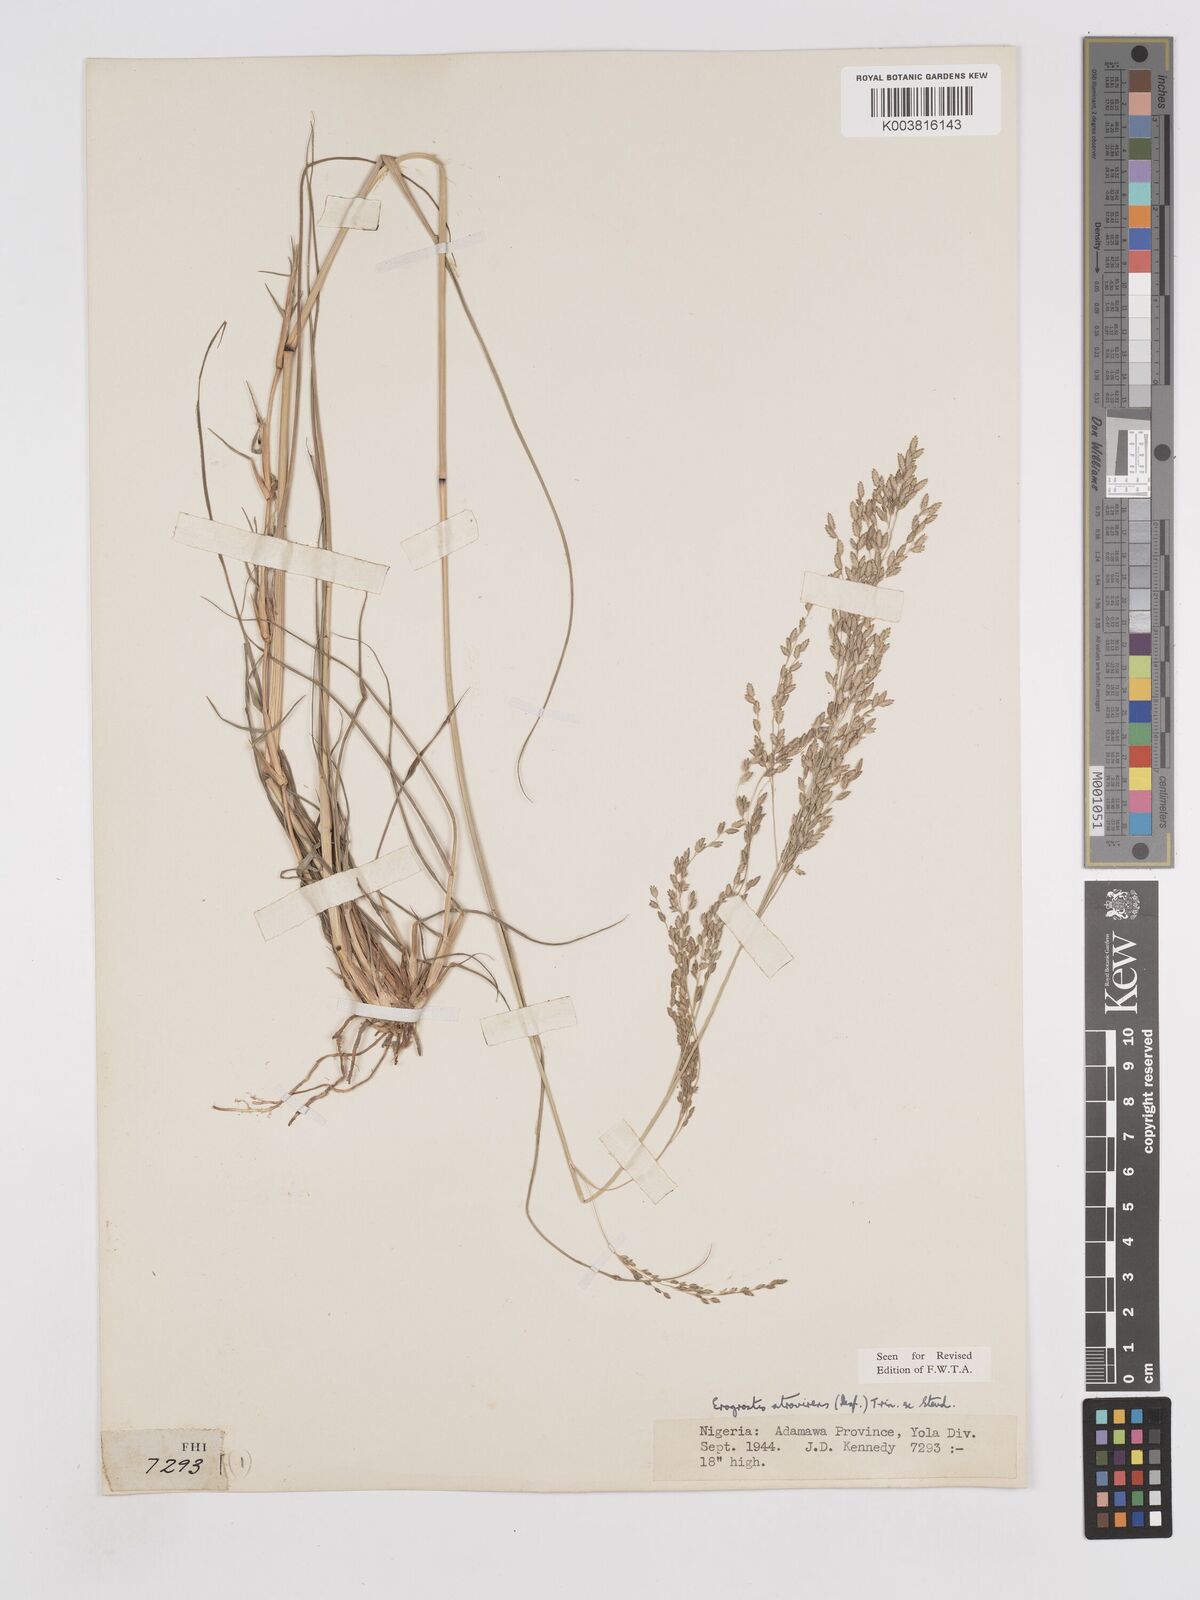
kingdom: Plantae
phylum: Tracheophyta
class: Liliopsida
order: Poales
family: Poaceae
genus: Eragrostis
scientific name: Eragrostis atrovirens
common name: Thalia lovegrass
